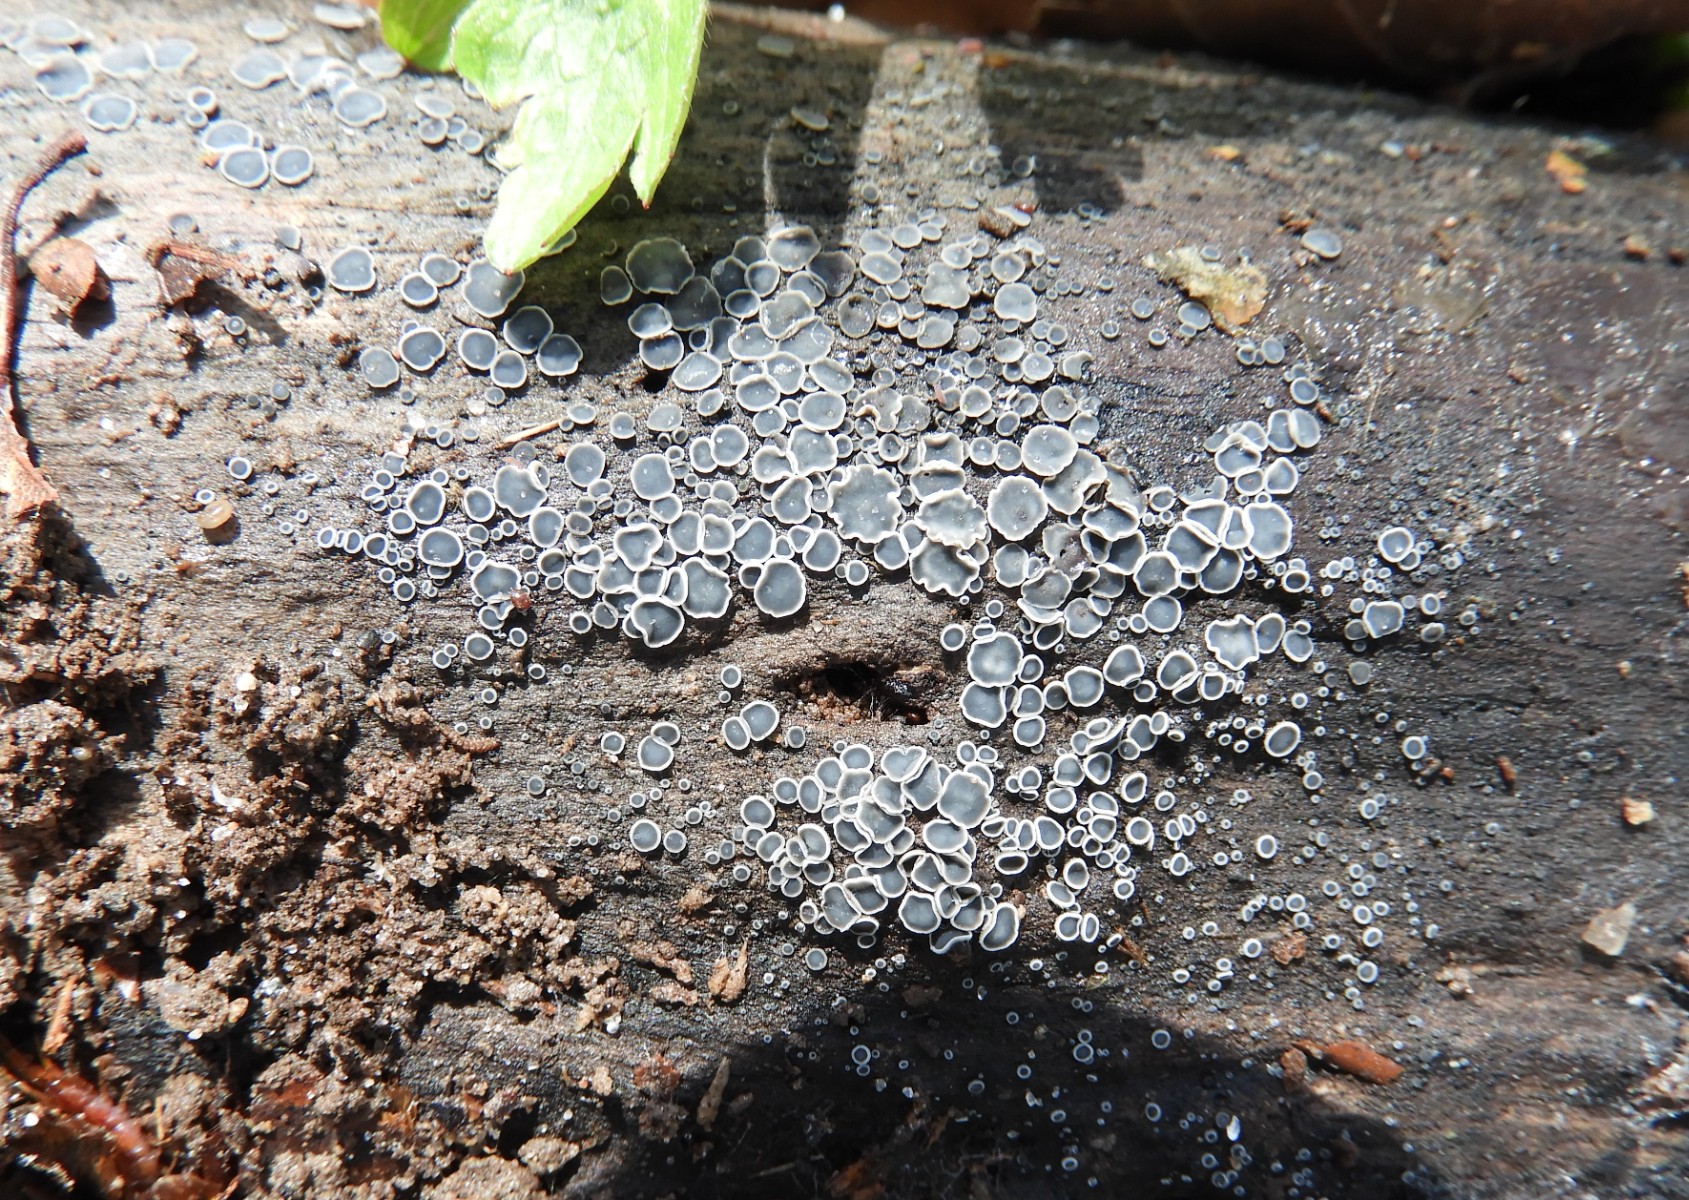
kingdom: Fungi
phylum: Ascomycota
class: Leotiomycetes
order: Helotiales
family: Mollisiaceae
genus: Mollisia
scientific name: Mollisia
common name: gråskive
